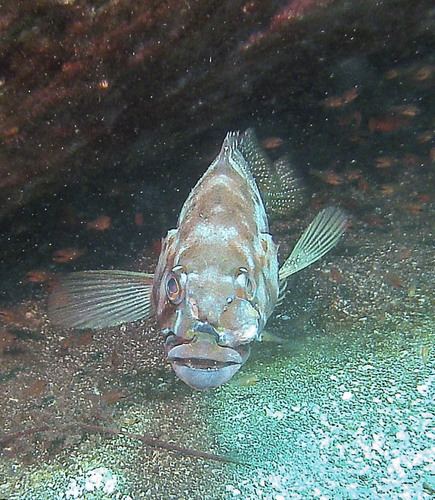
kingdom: Animalia
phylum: Chordata
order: Perciformes
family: Serranidae
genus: Serranus
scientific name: Serranus atricauda
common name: Blacktail comber
